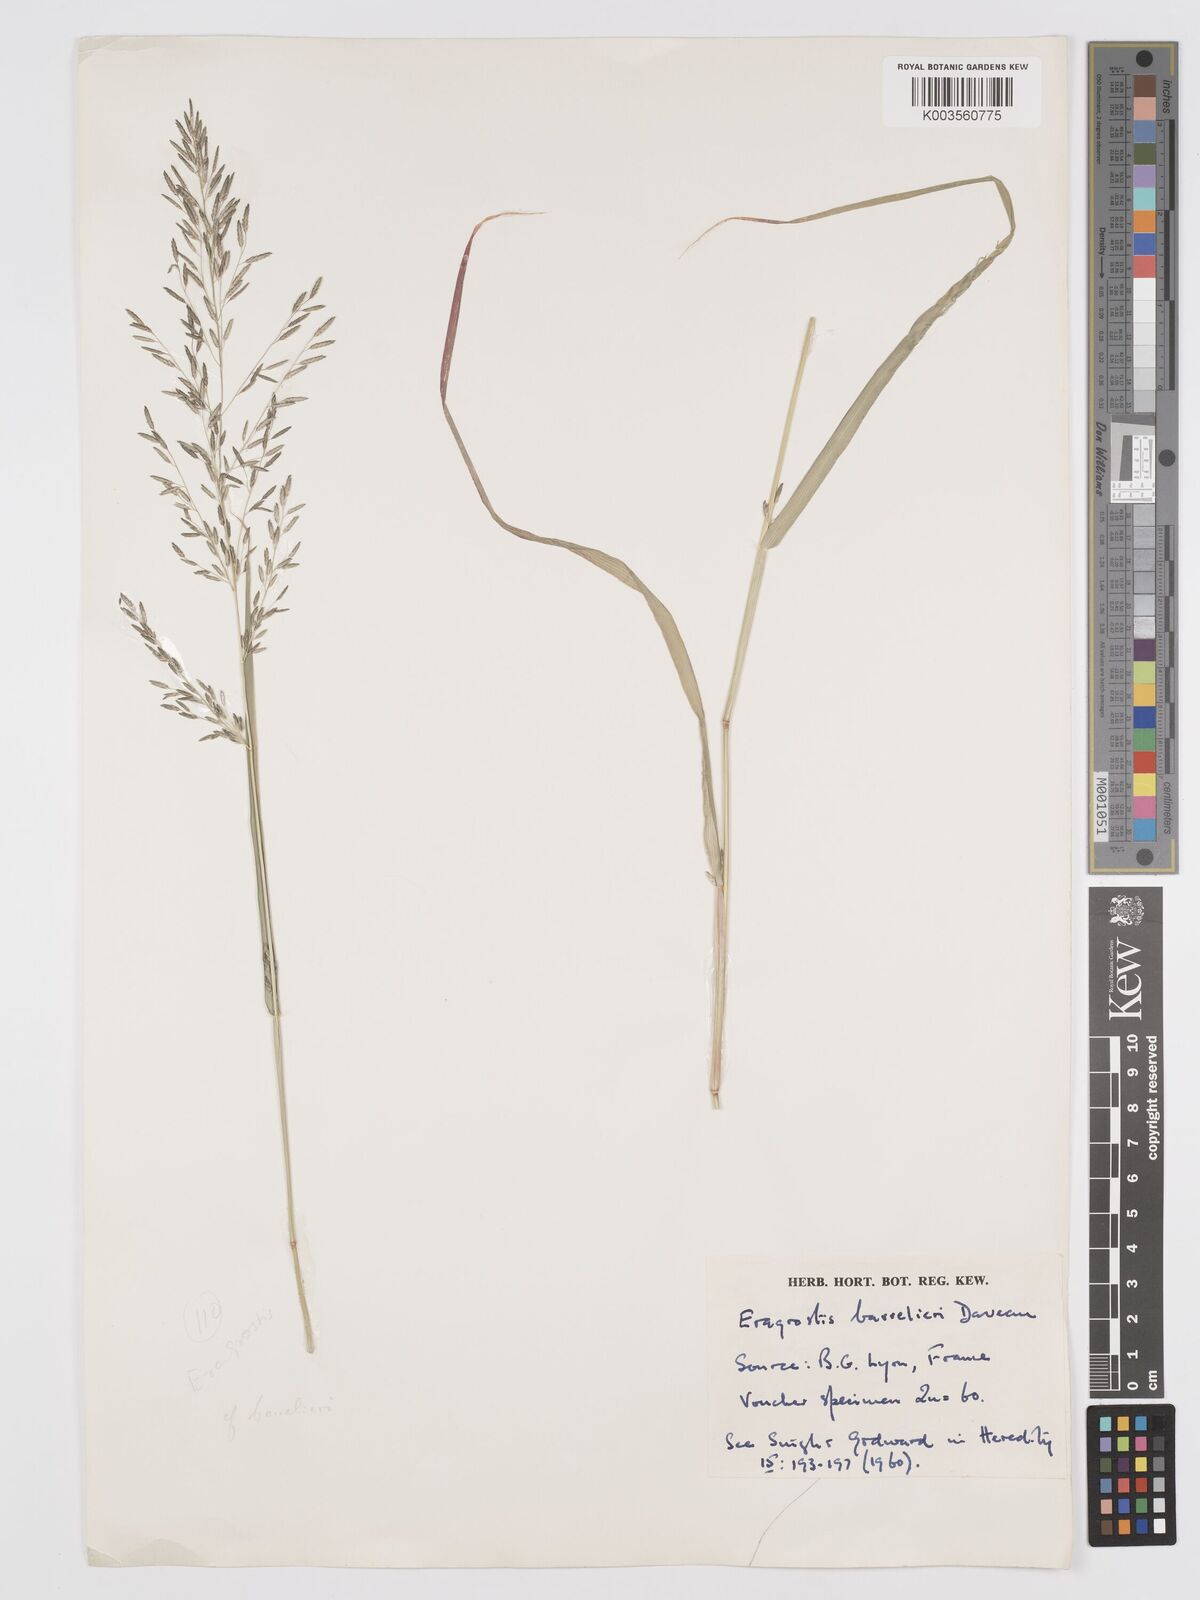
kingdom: Plantae
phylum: Tracheophyta
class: Liliopsida
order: Poales
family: Poaceae
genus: Eragrostis
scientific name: Eragrostis barrelieri
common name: Mediterranean lovegrass
